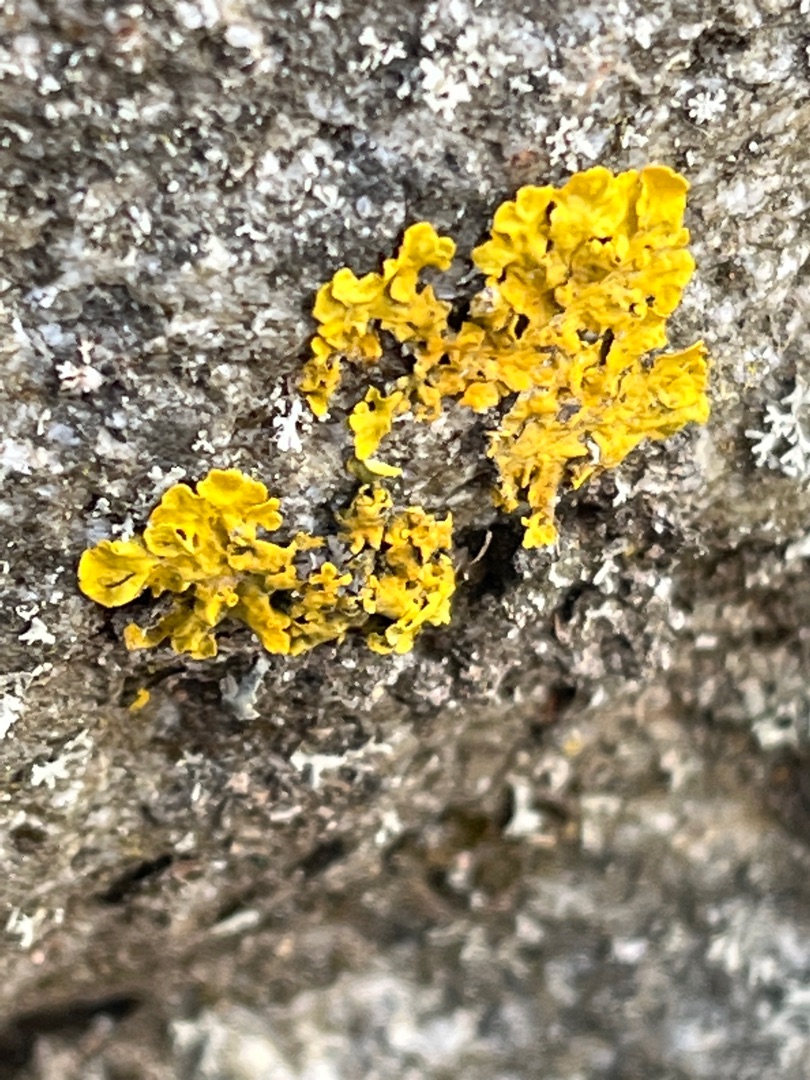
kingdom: Fungi
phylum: Ascomycota
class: Lecanoromycetes
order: Teloschistales
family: Teloschistaceae
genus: Xanthoria
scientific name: Xanthoria parietina
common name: Almindelig væggelav
